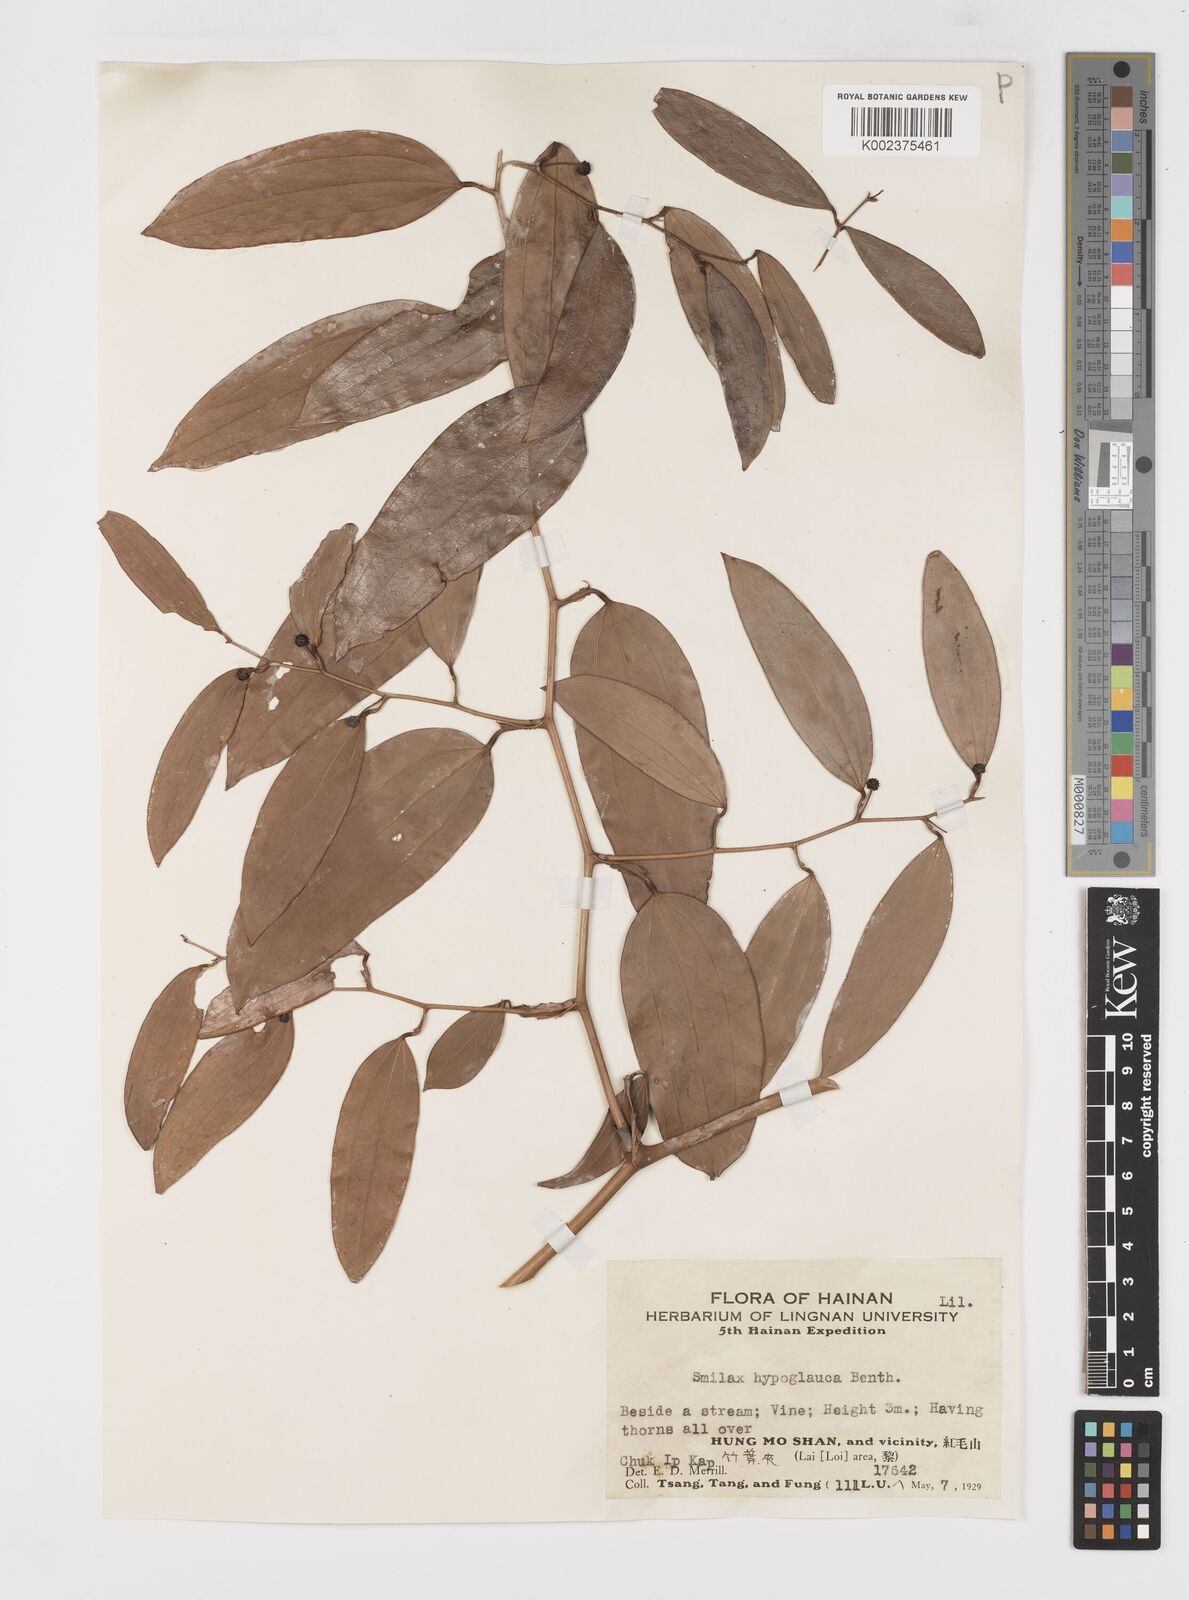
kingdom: Plantae
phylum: Tracheophyta
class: Liliopsida
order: Liliales
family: Smilacaceae
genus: Smilax
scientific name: Smilax hypoglauca
